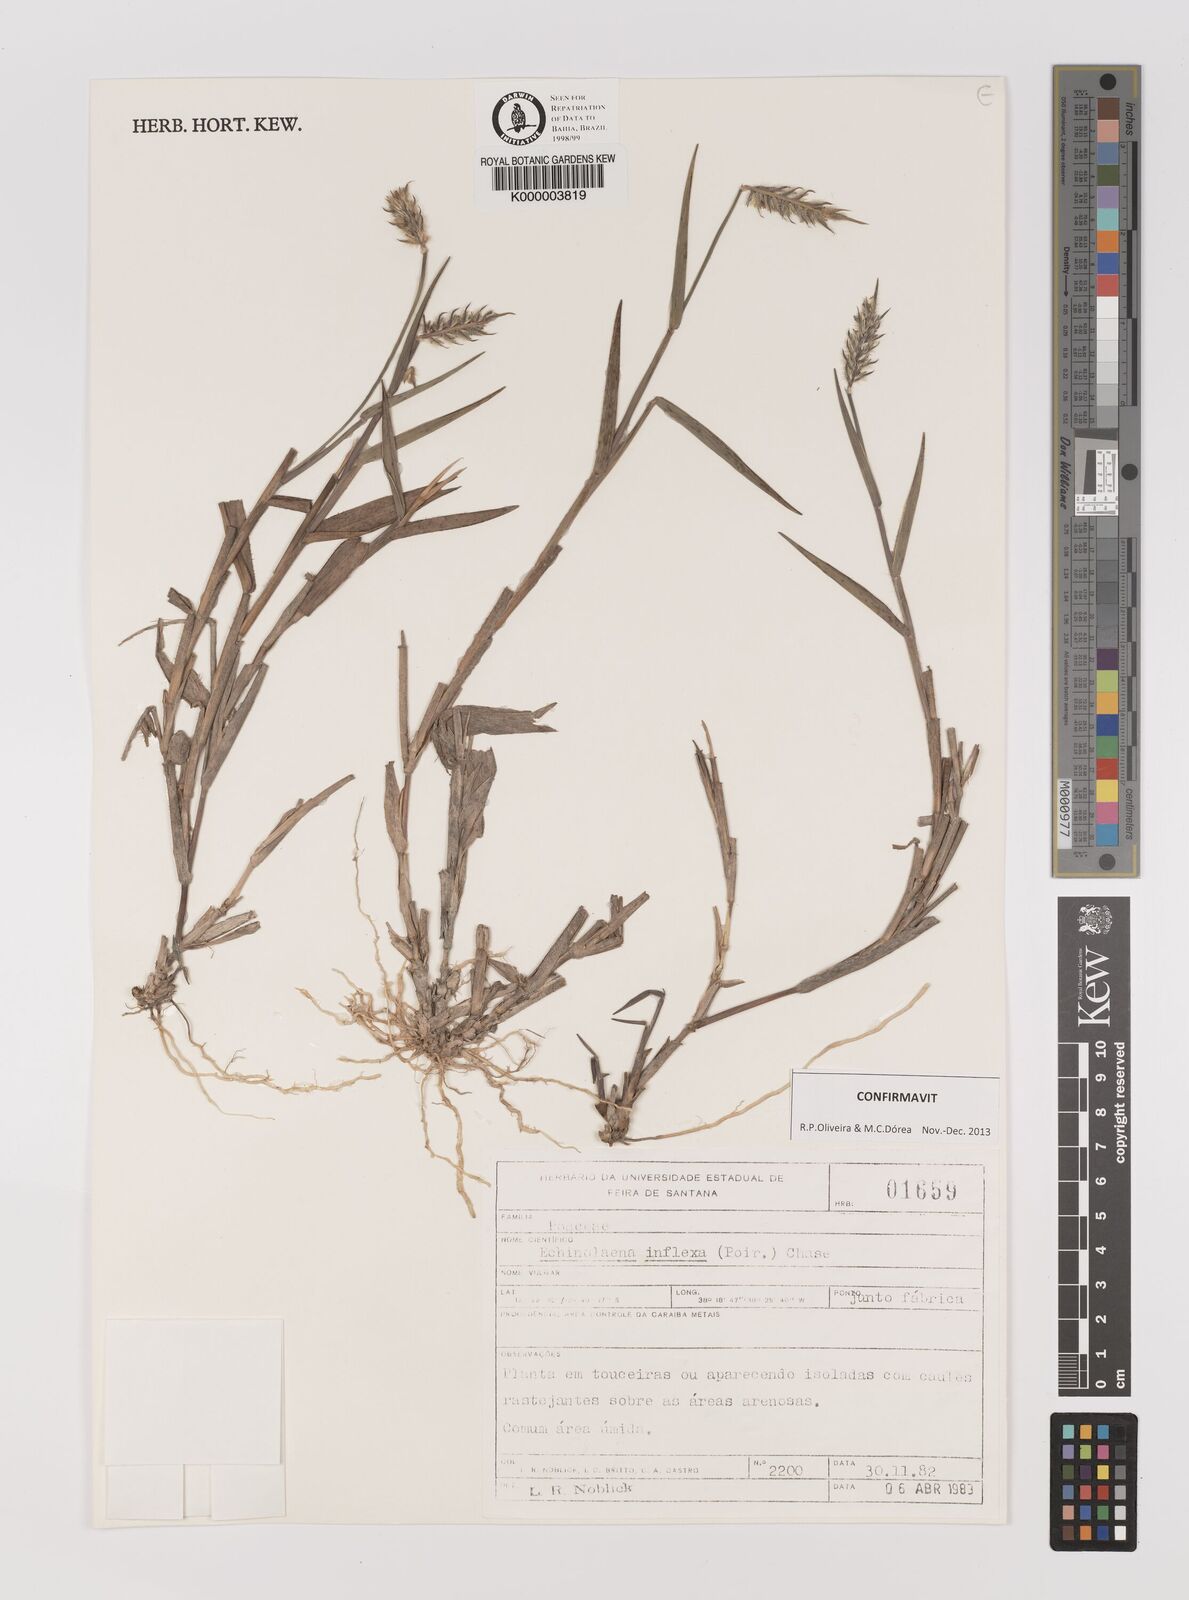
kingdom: Plantae
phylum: Tracheophyta
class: Liliopsida
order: Poales
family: Poaceae
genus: Echinolaena
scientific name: Echinolaena inflexa
